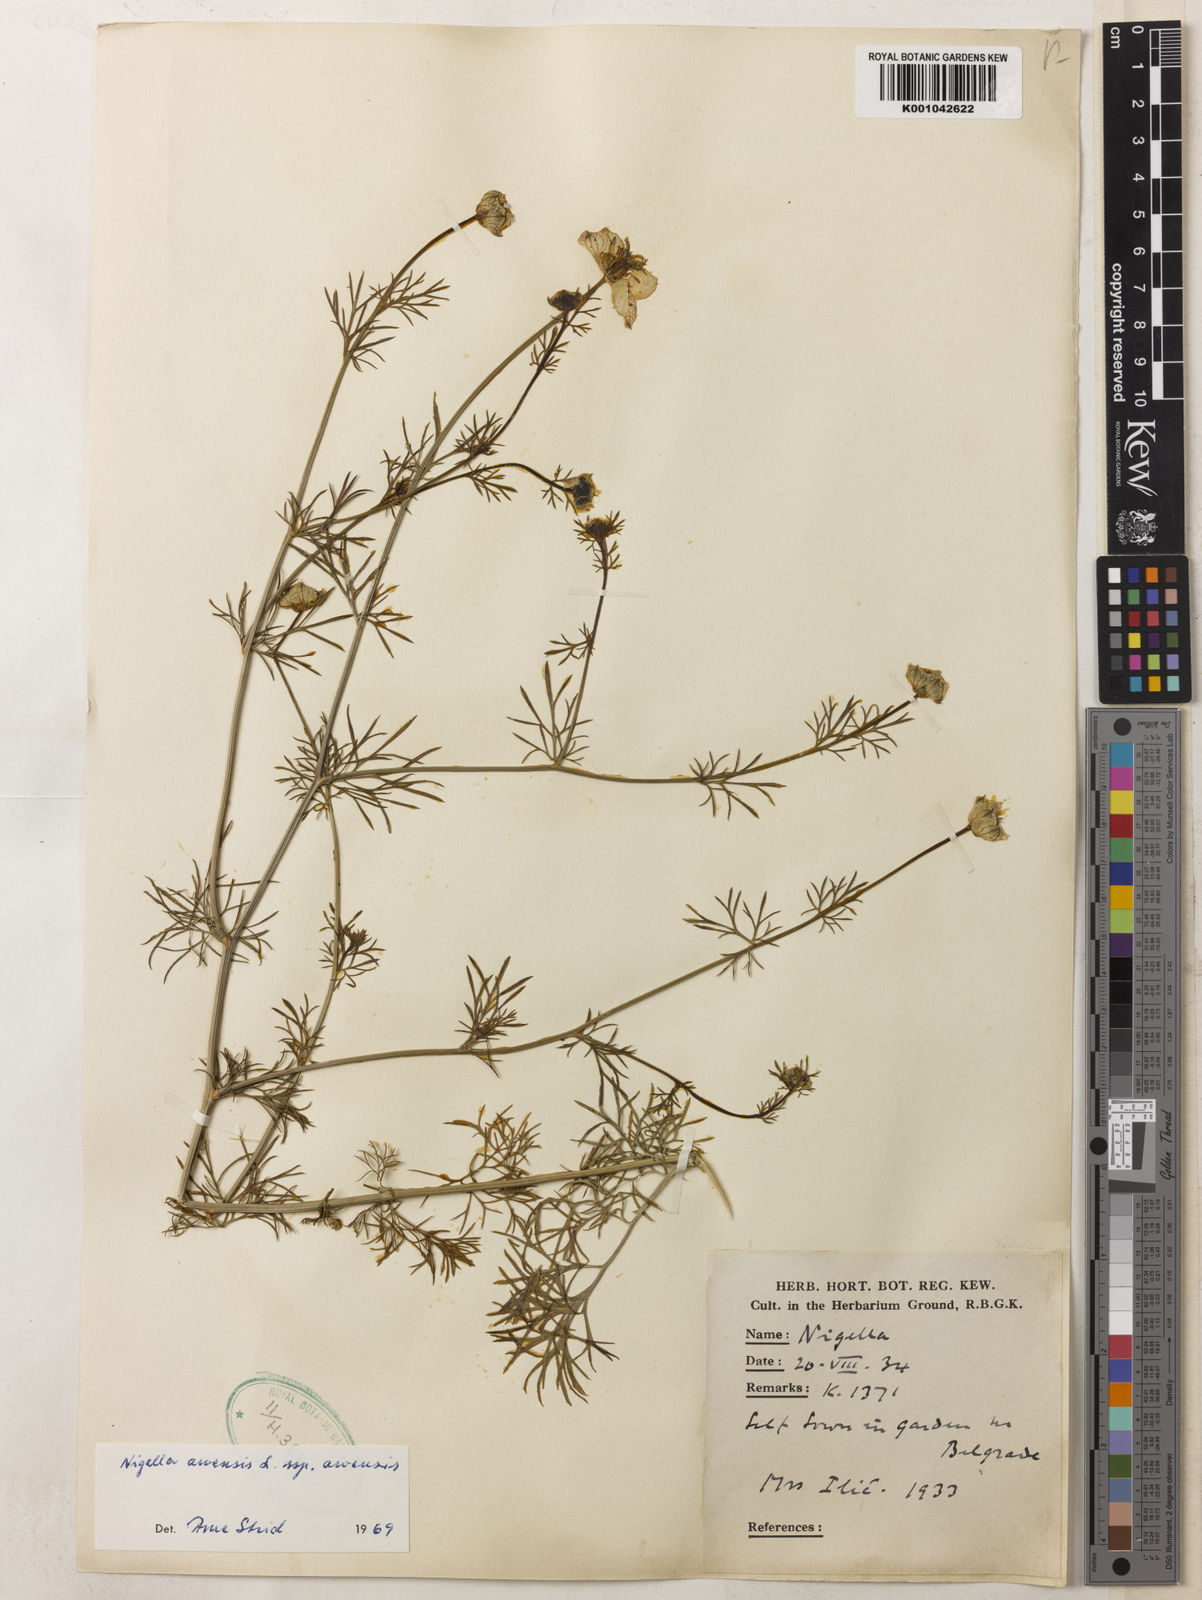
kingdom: Plantae
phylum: Tracheophyta
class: Magnoliopsida
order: Ranunculales
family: Ranunculaceae
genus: Nigella
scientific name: Nigella arvensis
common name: Wild fennel-flower
